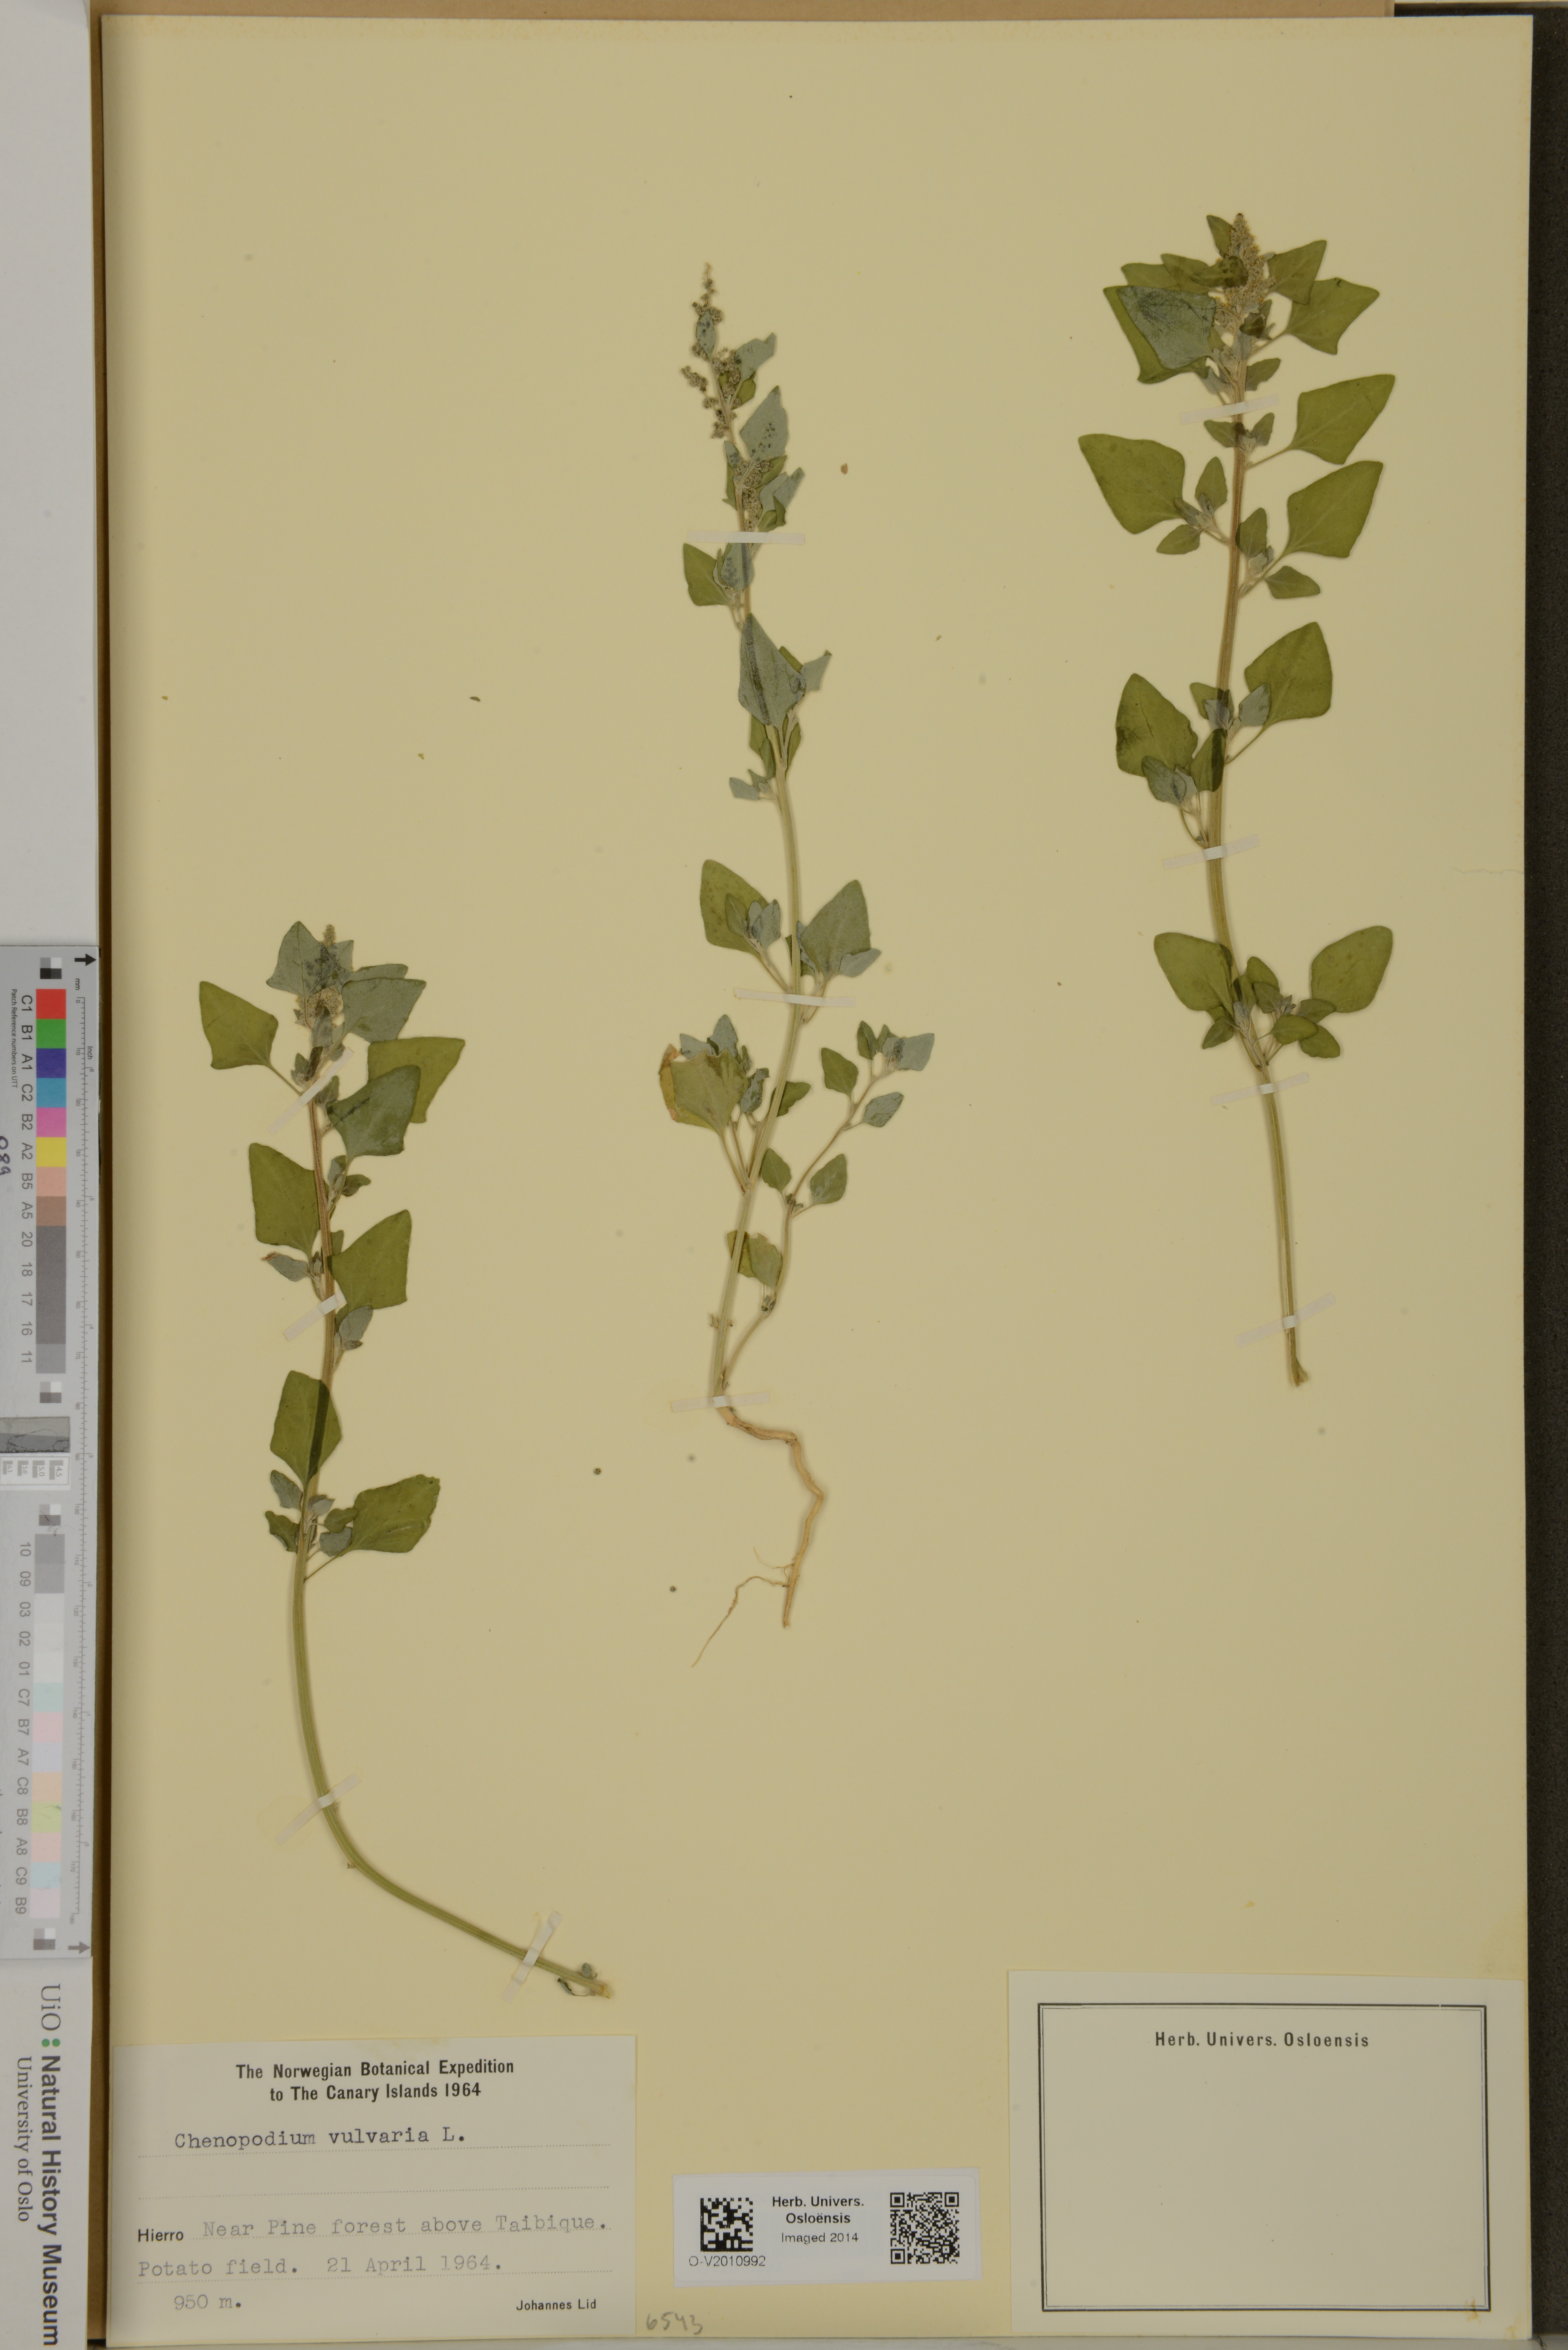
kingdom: Plantae
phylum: Tracheophyta
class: Magnoliopsida
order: Caryophyllales
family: Amaranthaceae
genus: Chenopodium
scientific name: Chenopodium vulvaria
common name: Stinking goosefoot
